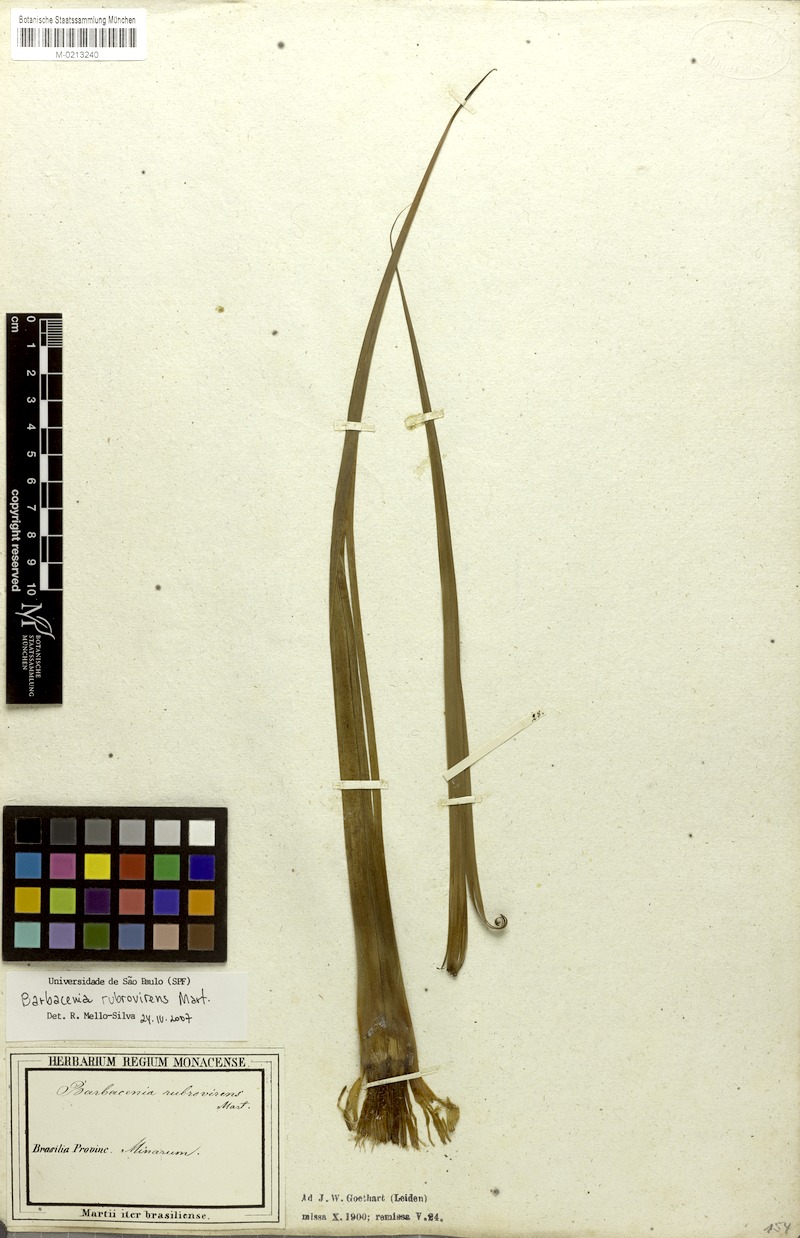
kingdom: Plantae
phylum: Tracheophyta
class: Liliopsida
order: Pandanales
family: Velloziaceae
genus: Barbacenia
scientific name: Barbacenia rubrovirens
